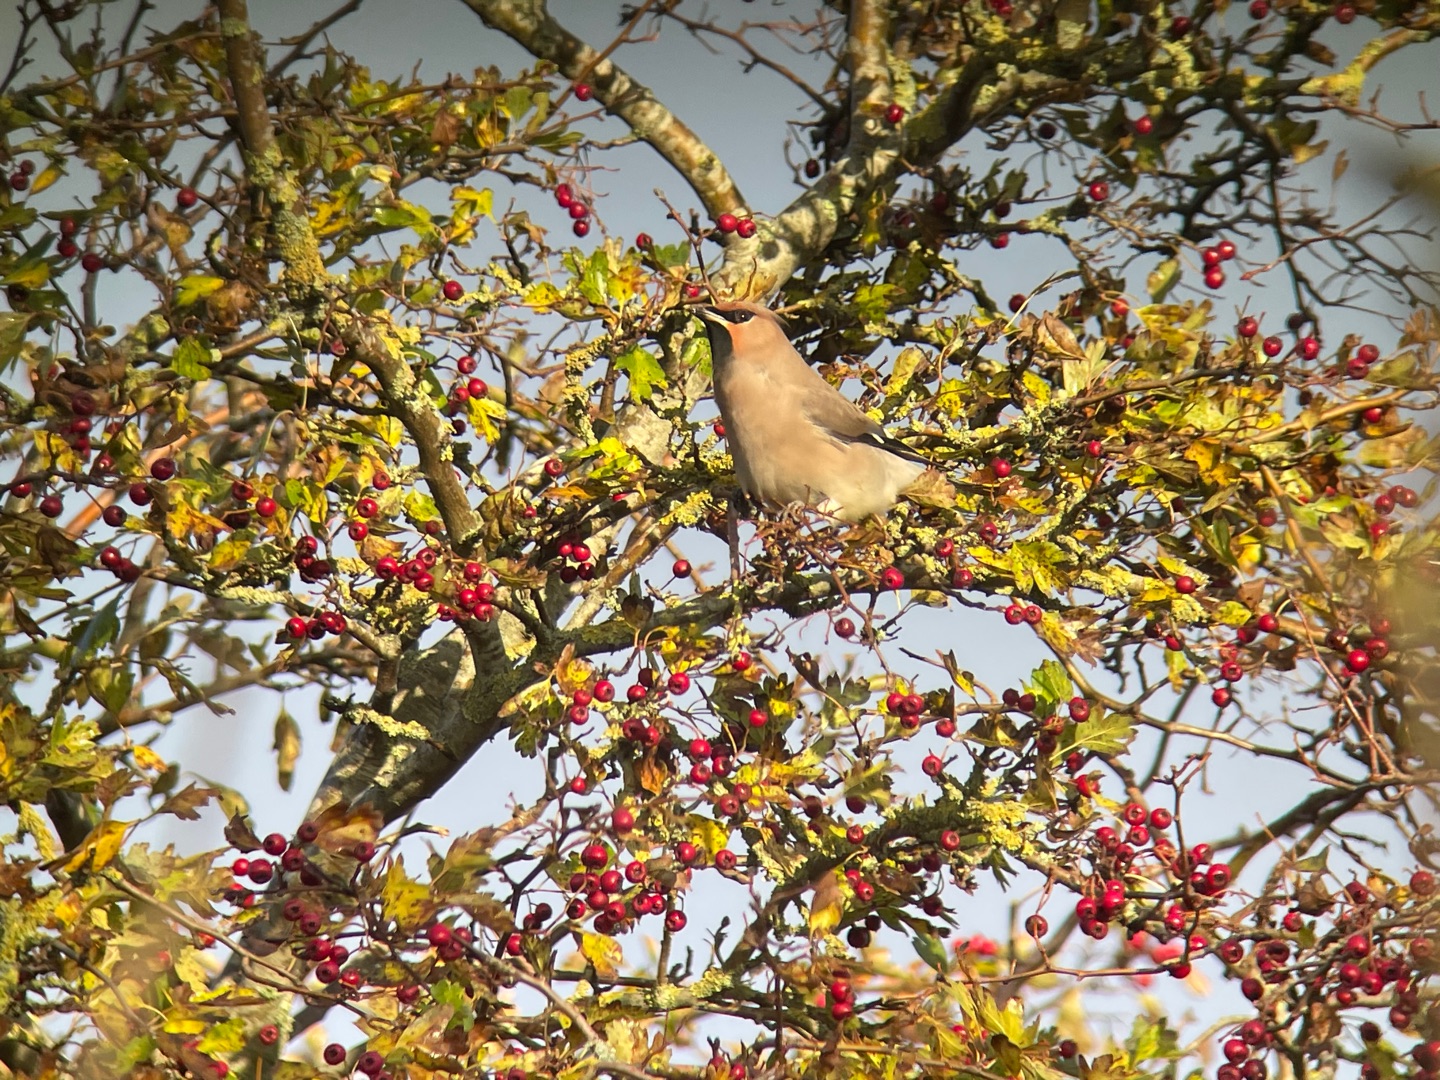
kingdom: Animalia
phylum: Chordata
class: Aves
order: Passeriformes
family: Bombycillidae
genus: Bombycilla
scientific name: Bombycilla garrulus
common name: Silkehale
